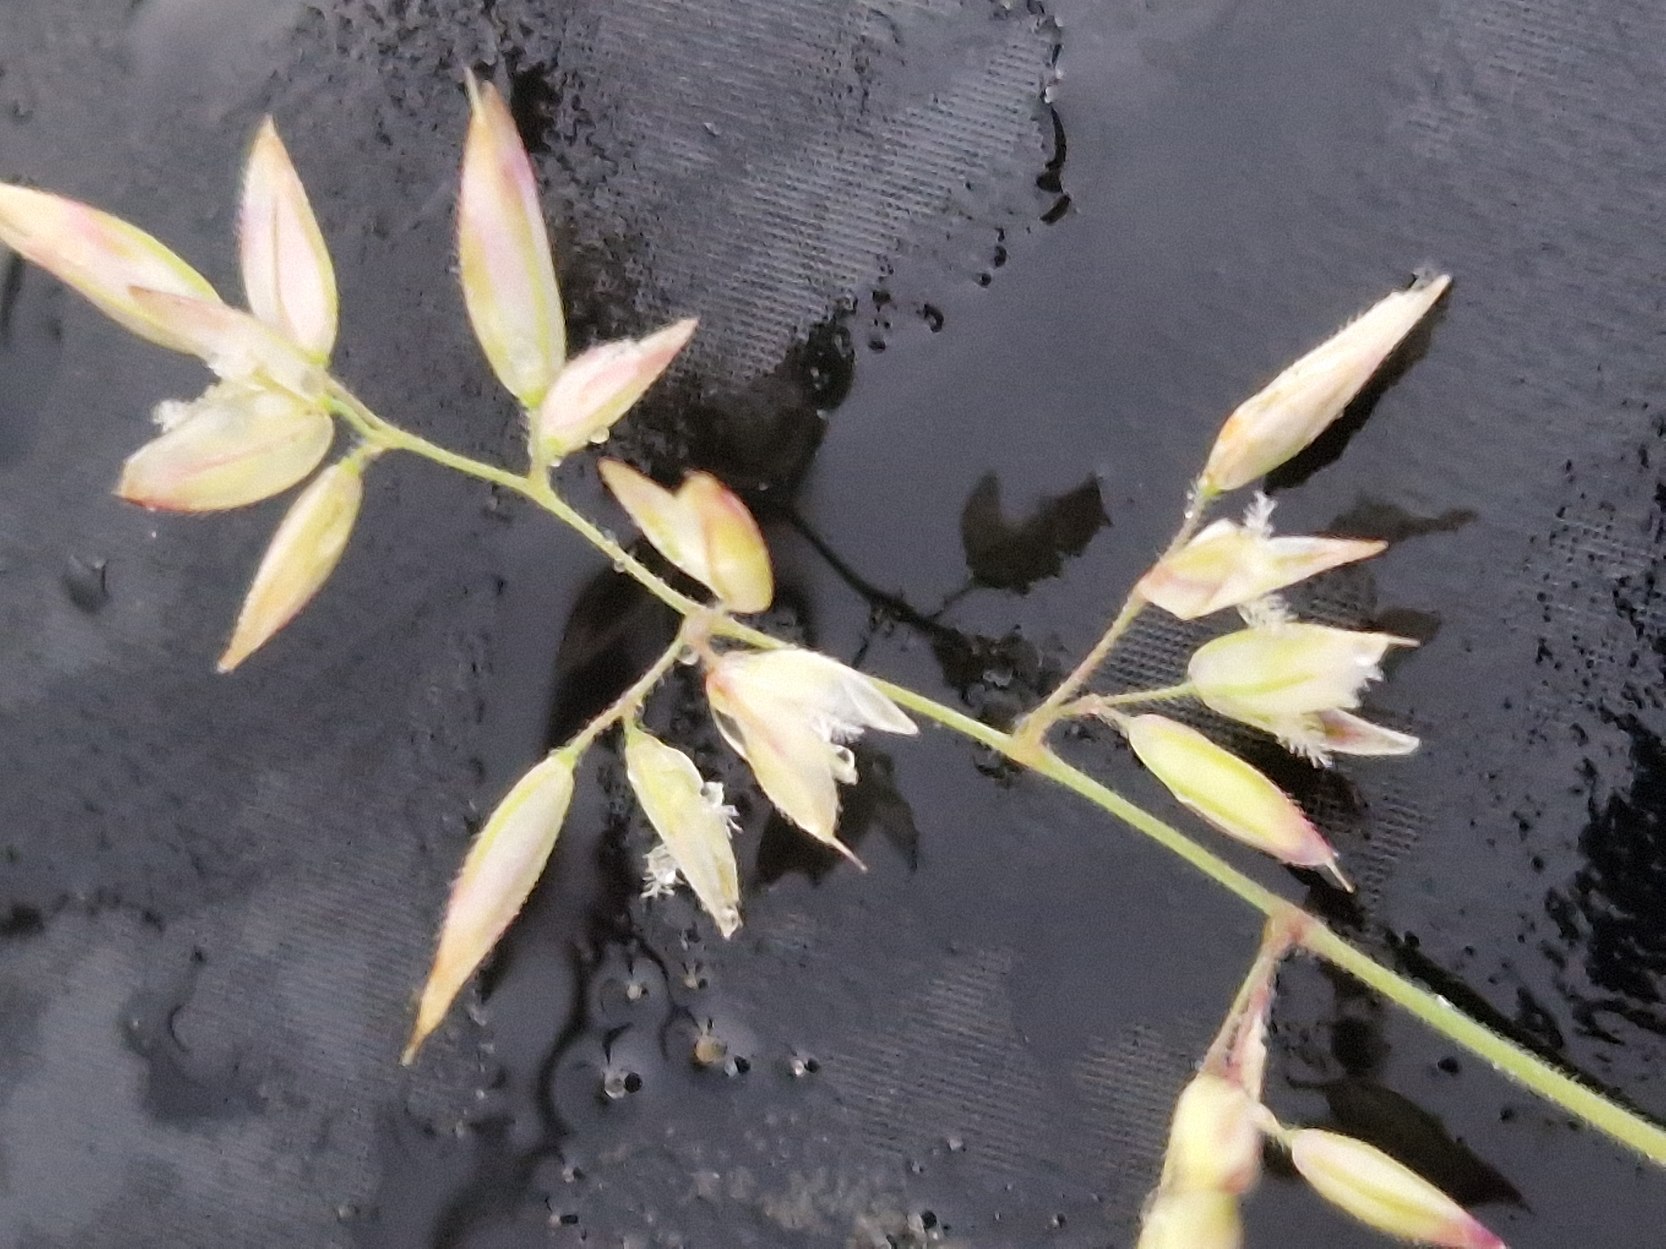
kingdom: Plantae
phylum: Tracheophyta
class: Liliopsida
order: Poales
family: Poaceae
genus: Holcus
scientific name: Holcus lanatus
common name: Fløjlsgræs
